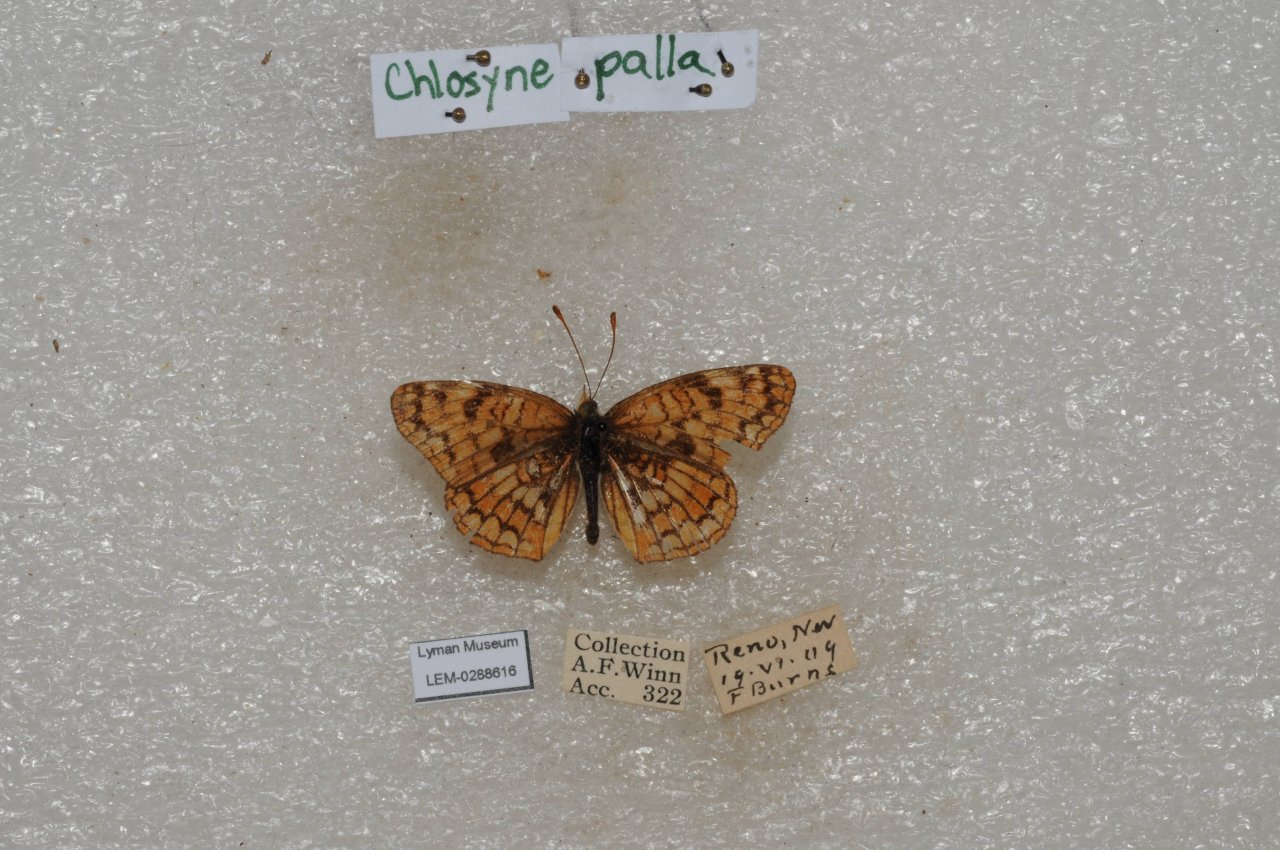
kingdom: Animalia
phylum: Arthropoda
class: Insecta
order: Lepidoptera
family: Nymphalidae
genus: Chlosyne
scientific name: Chlosyne palla
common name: Northern Checkerspot
